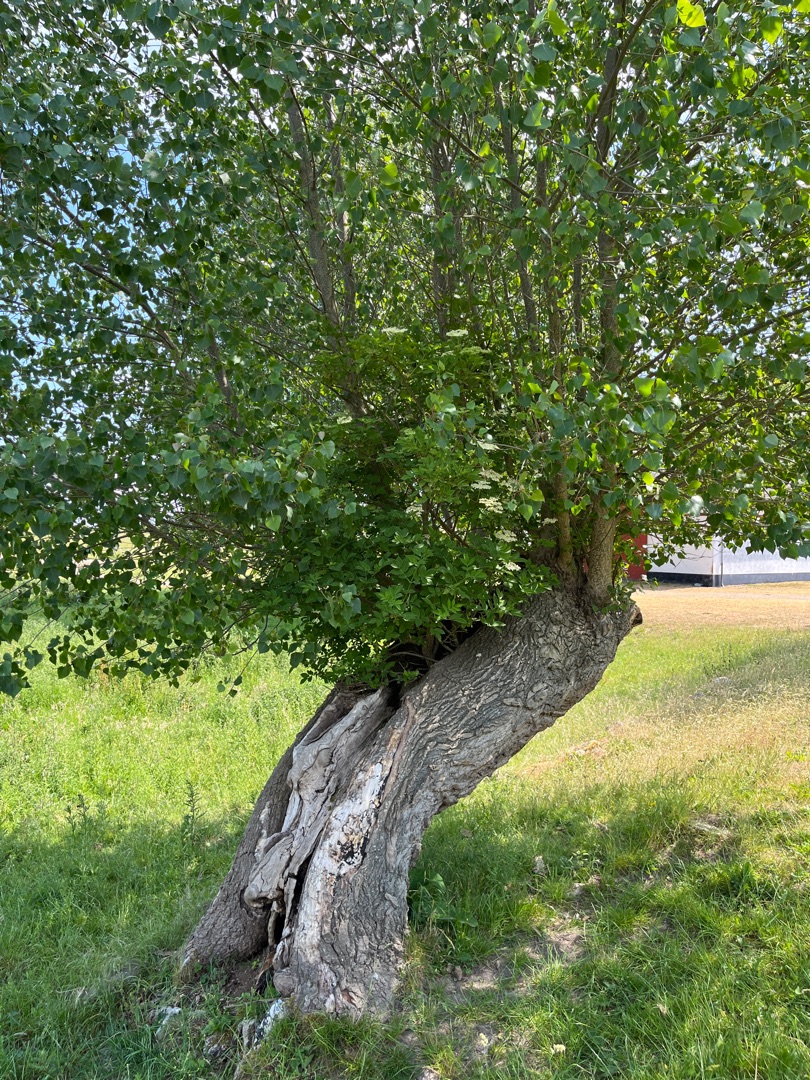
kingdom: Plantae
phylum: Tracheophyta
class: Magnoliopsida
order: Dipsacales
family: Viburnaceae
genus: Sambucus
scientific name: Sambucus nigra
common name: Almindelig hyld
